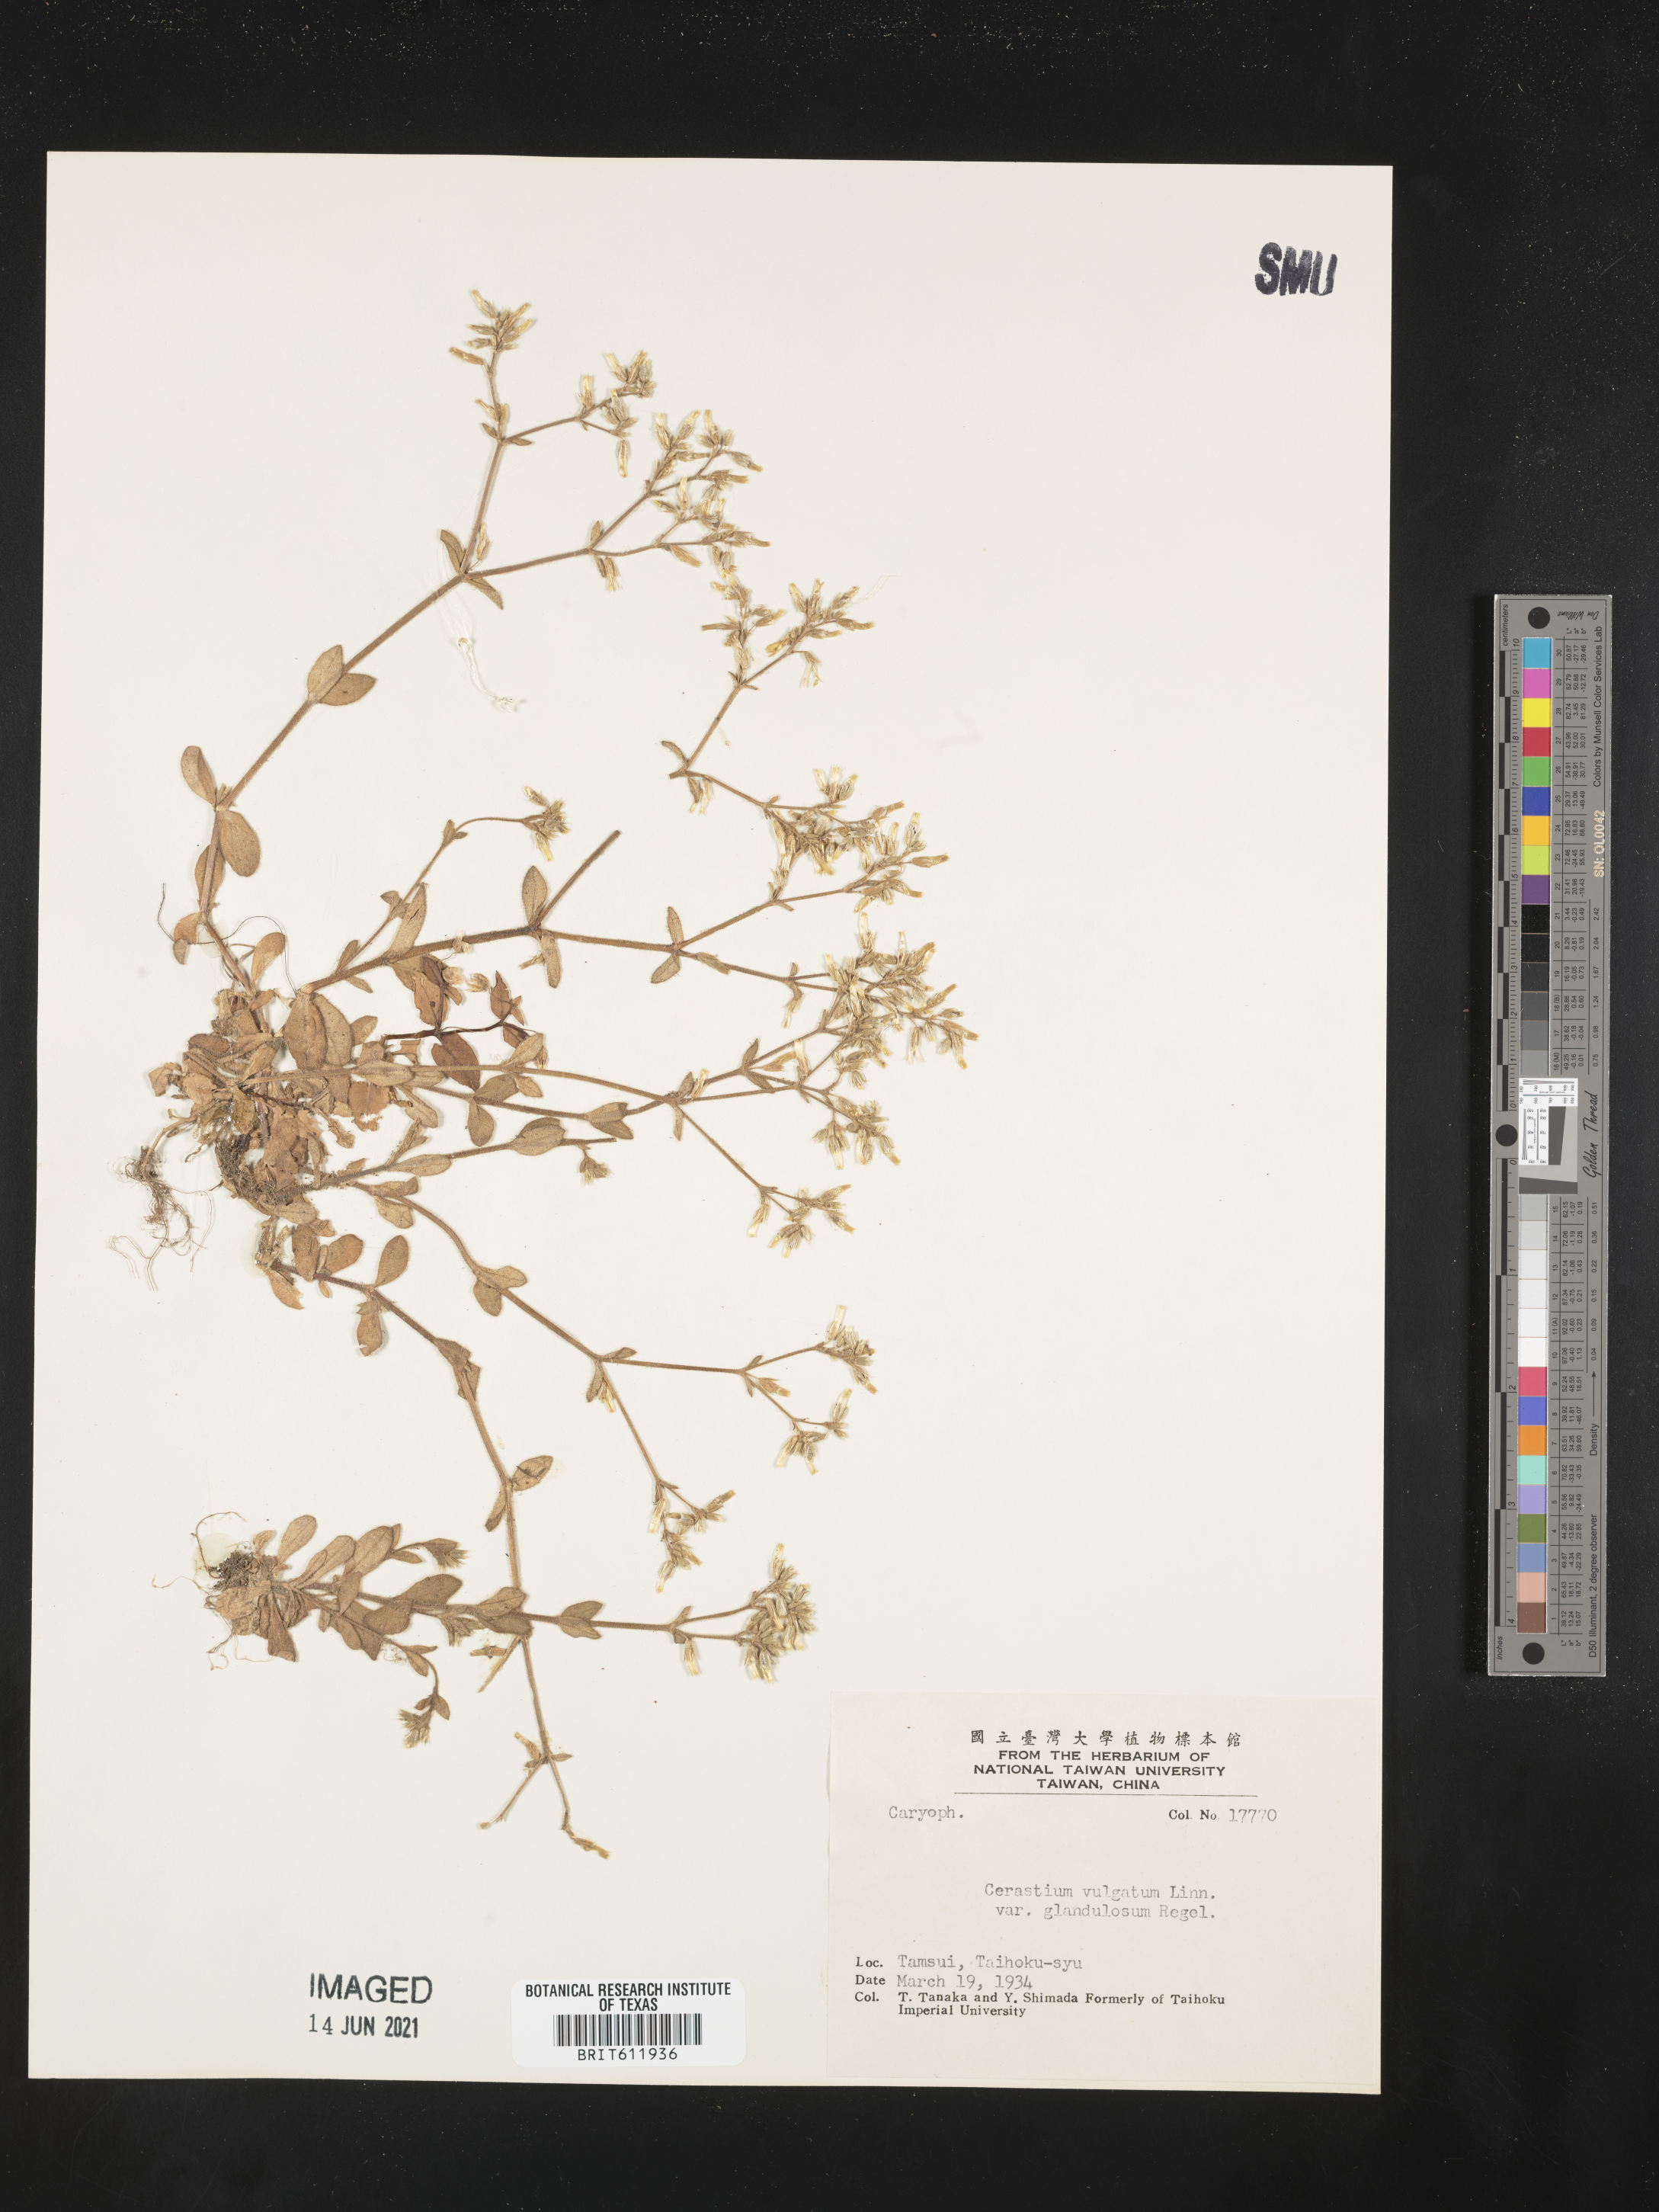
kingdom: Plantae
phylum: Tracheophyta
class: Magnoliopsida
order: Caryophyllales
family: Caryophyllaceae
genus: Cerastium
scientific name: Cerastium holosteoides
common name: Big chickweed
